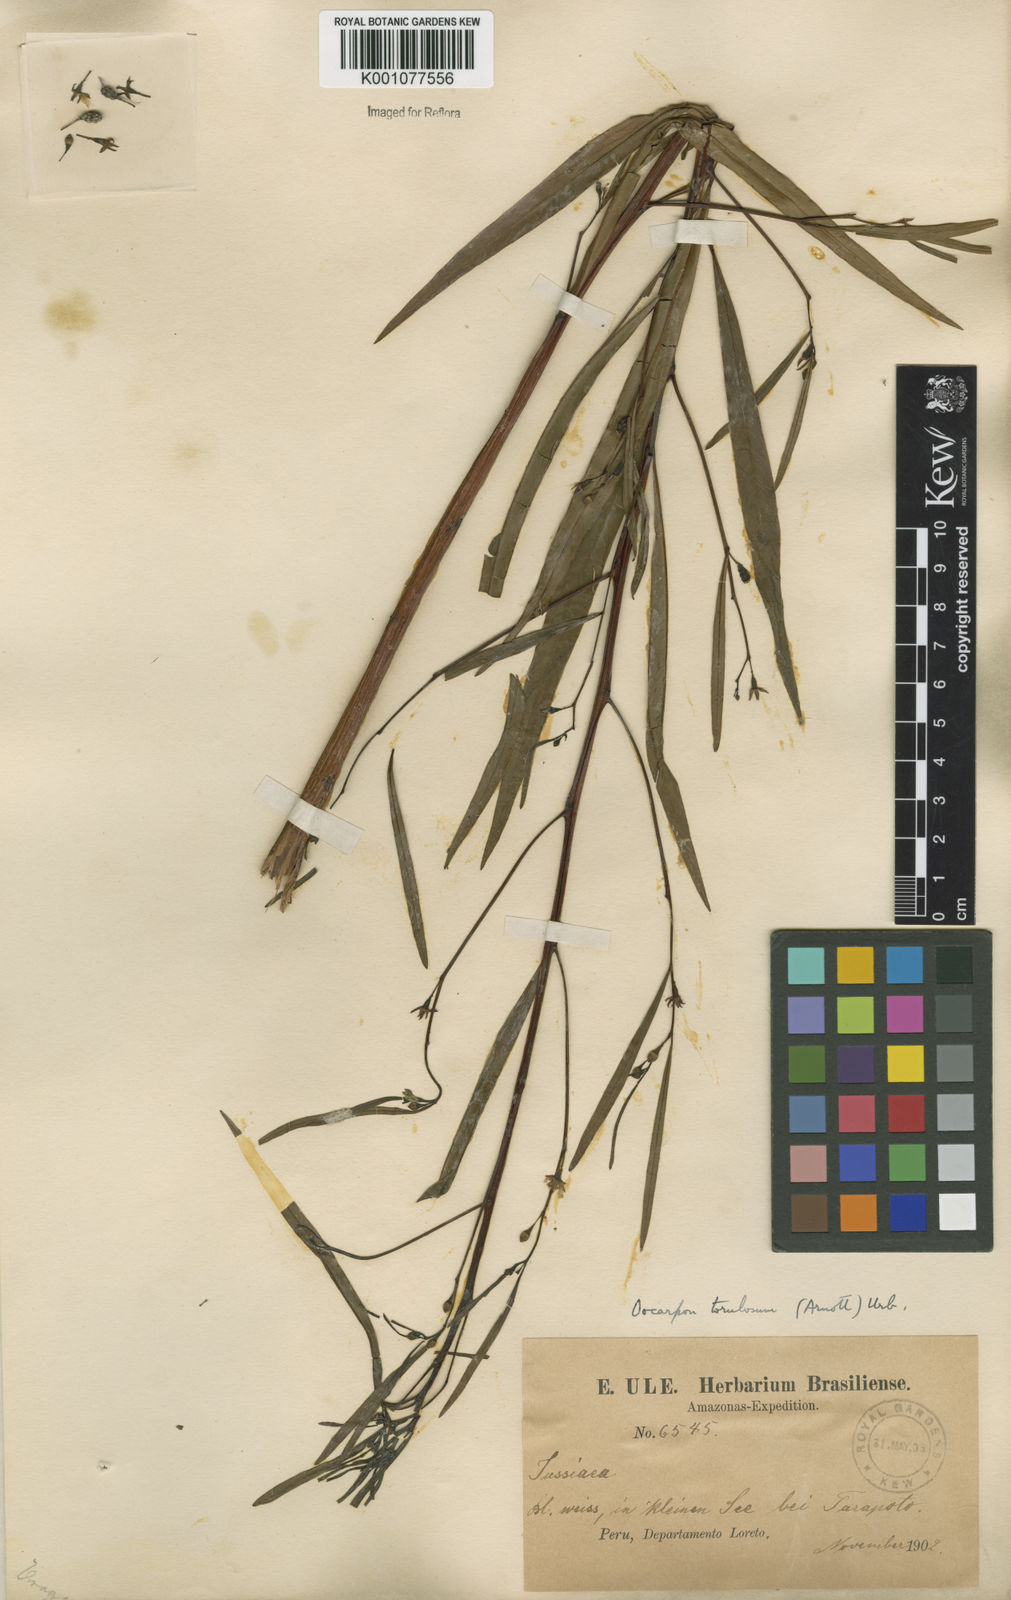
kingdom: Plantae
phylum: Tracheophyta
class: Magnoliopsida
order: Myrtales
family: Onagraceae
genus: Ludwigia
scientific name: Ludwigia torulosa
